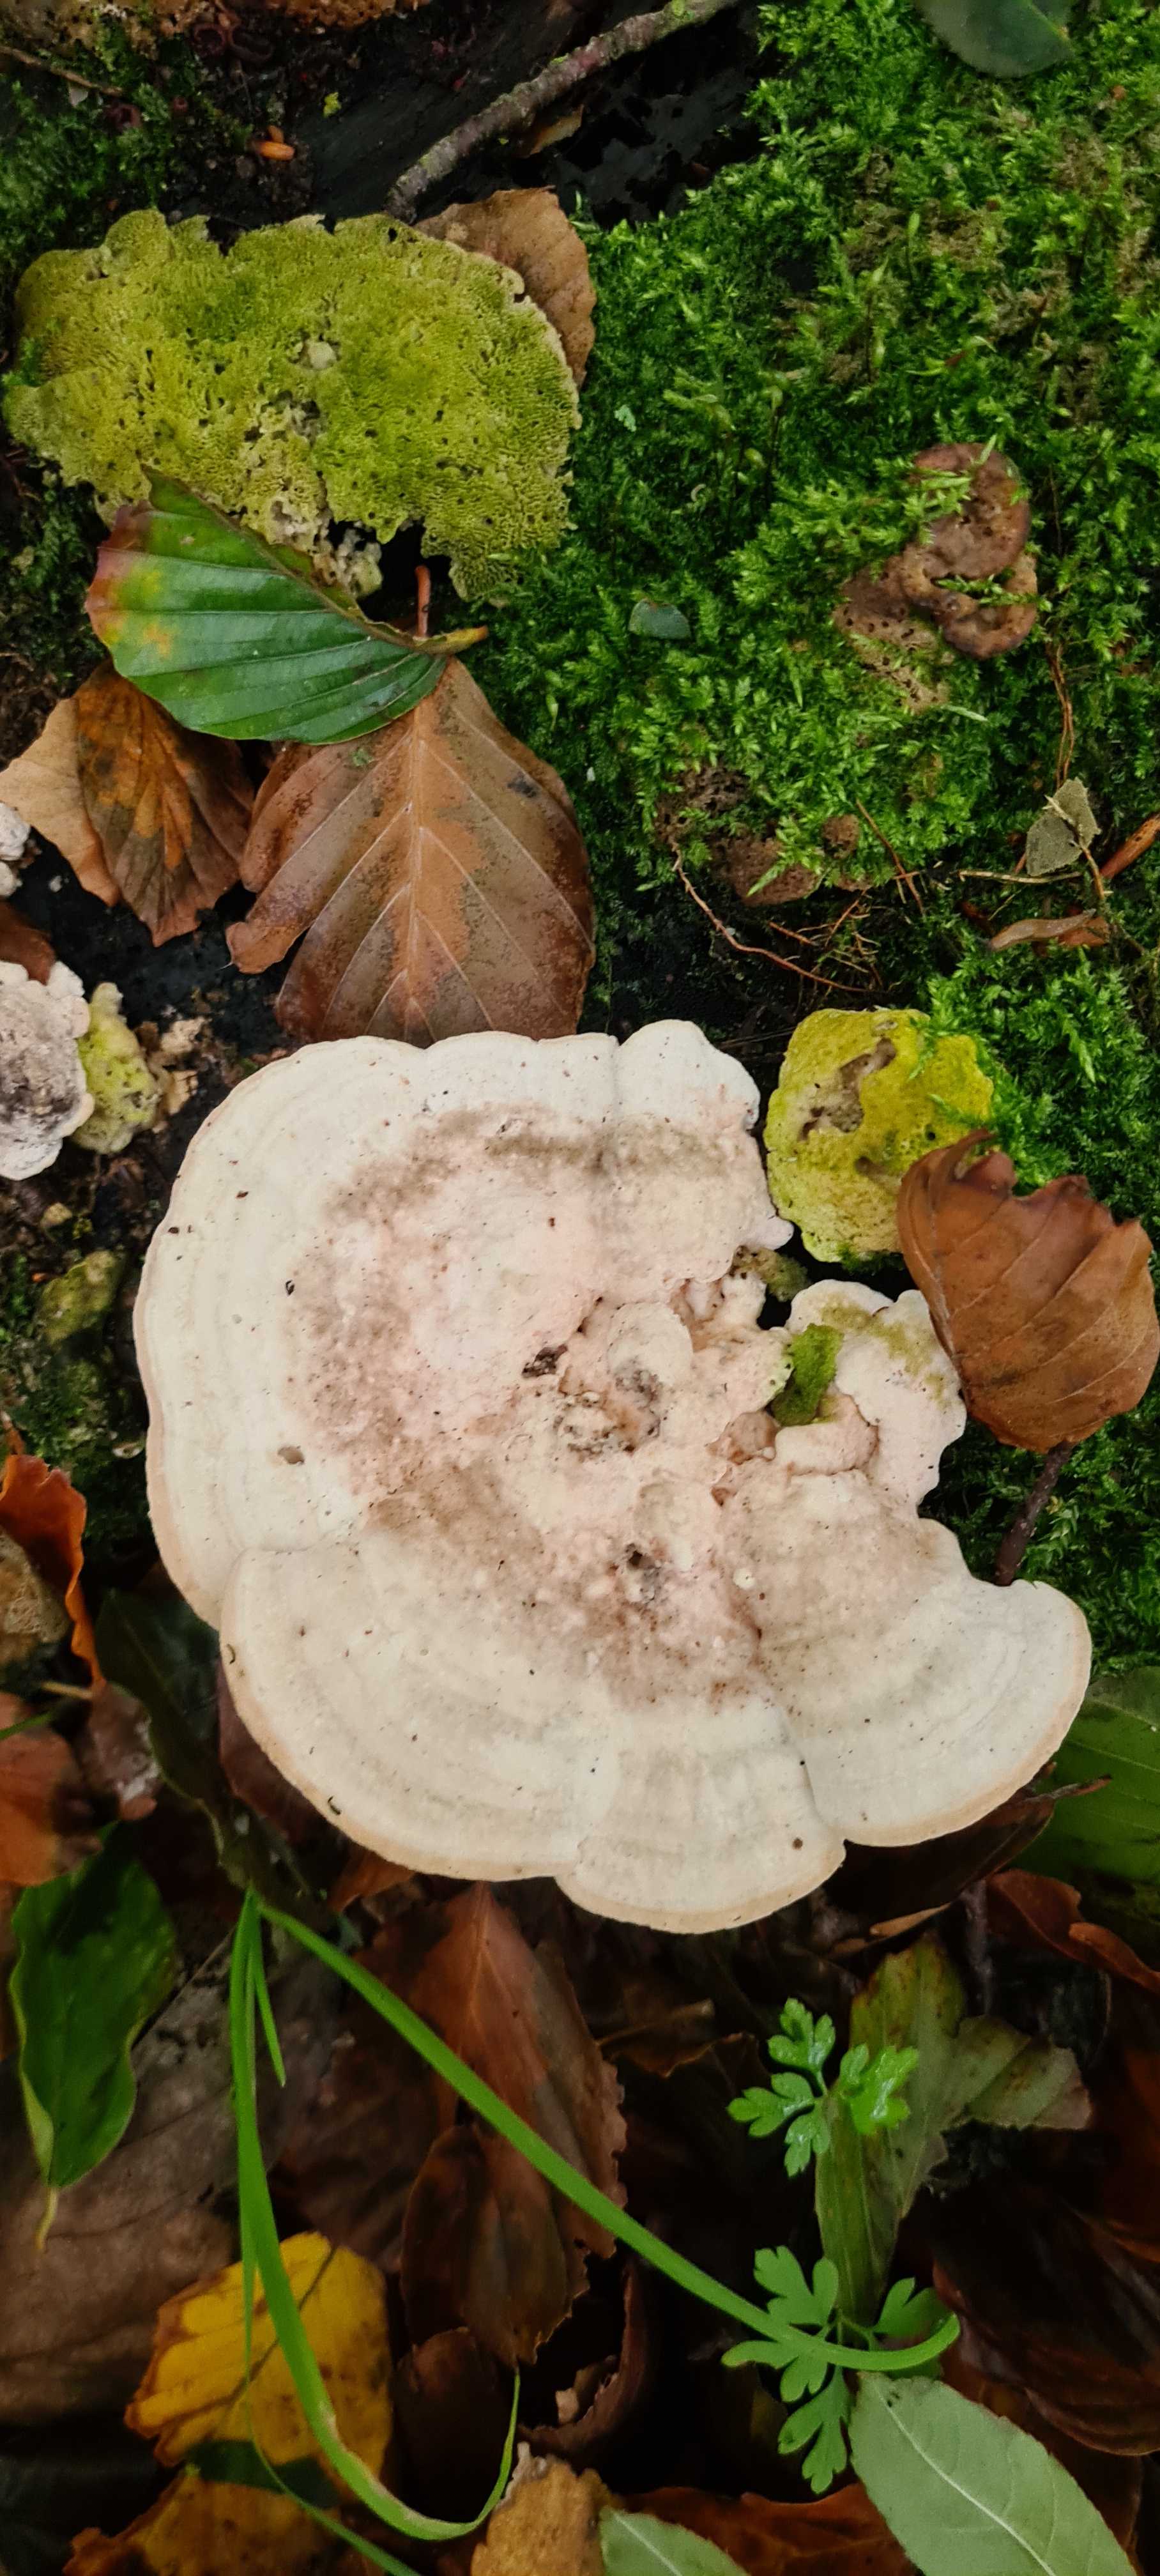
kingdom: Fungi
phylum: Basidiomycota
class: Agaricomycetes
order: Polyporales
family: Polyporaceae
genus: Trametes
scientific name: Trametes gibbosa
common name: puklet læderporesvamp
